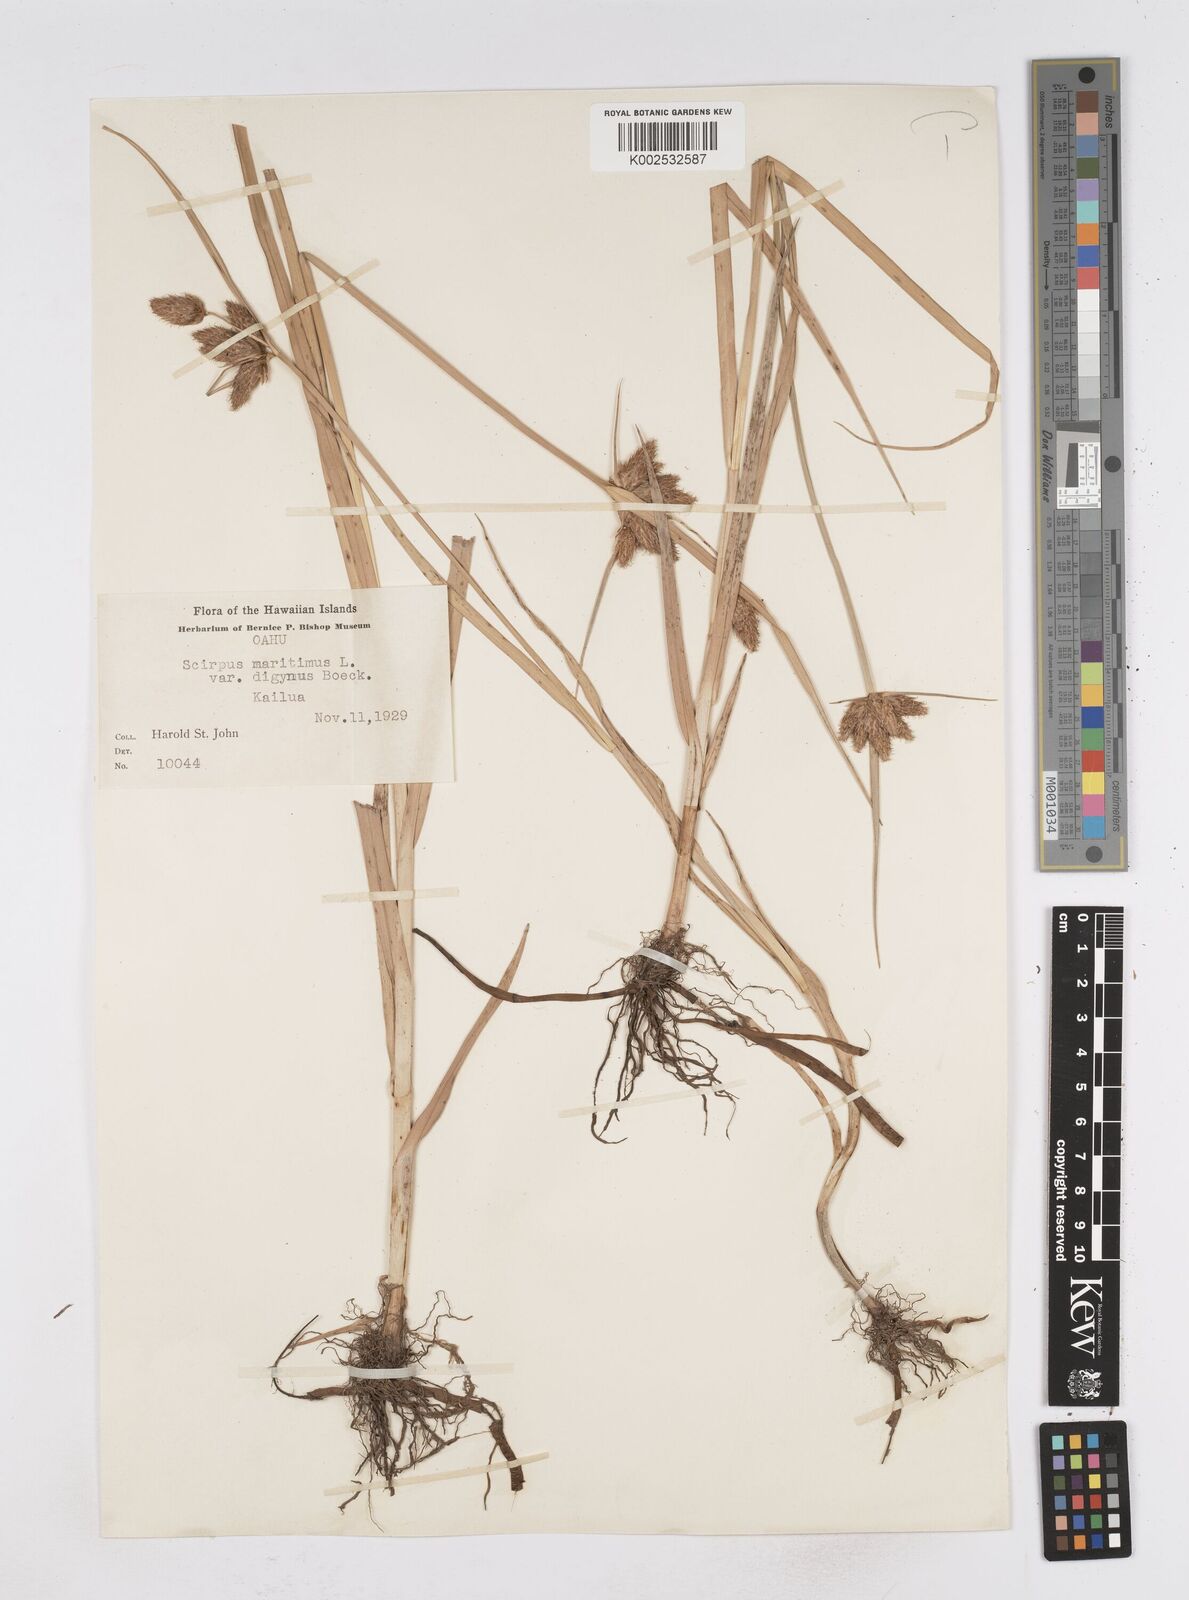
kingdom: Plantae
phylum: Tracheophyta
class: Liliopsida
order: Poales
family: Cyperaceae
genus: Bolboschoenus
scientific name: Bolboschoenus maritimus
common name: Sea club-rush
